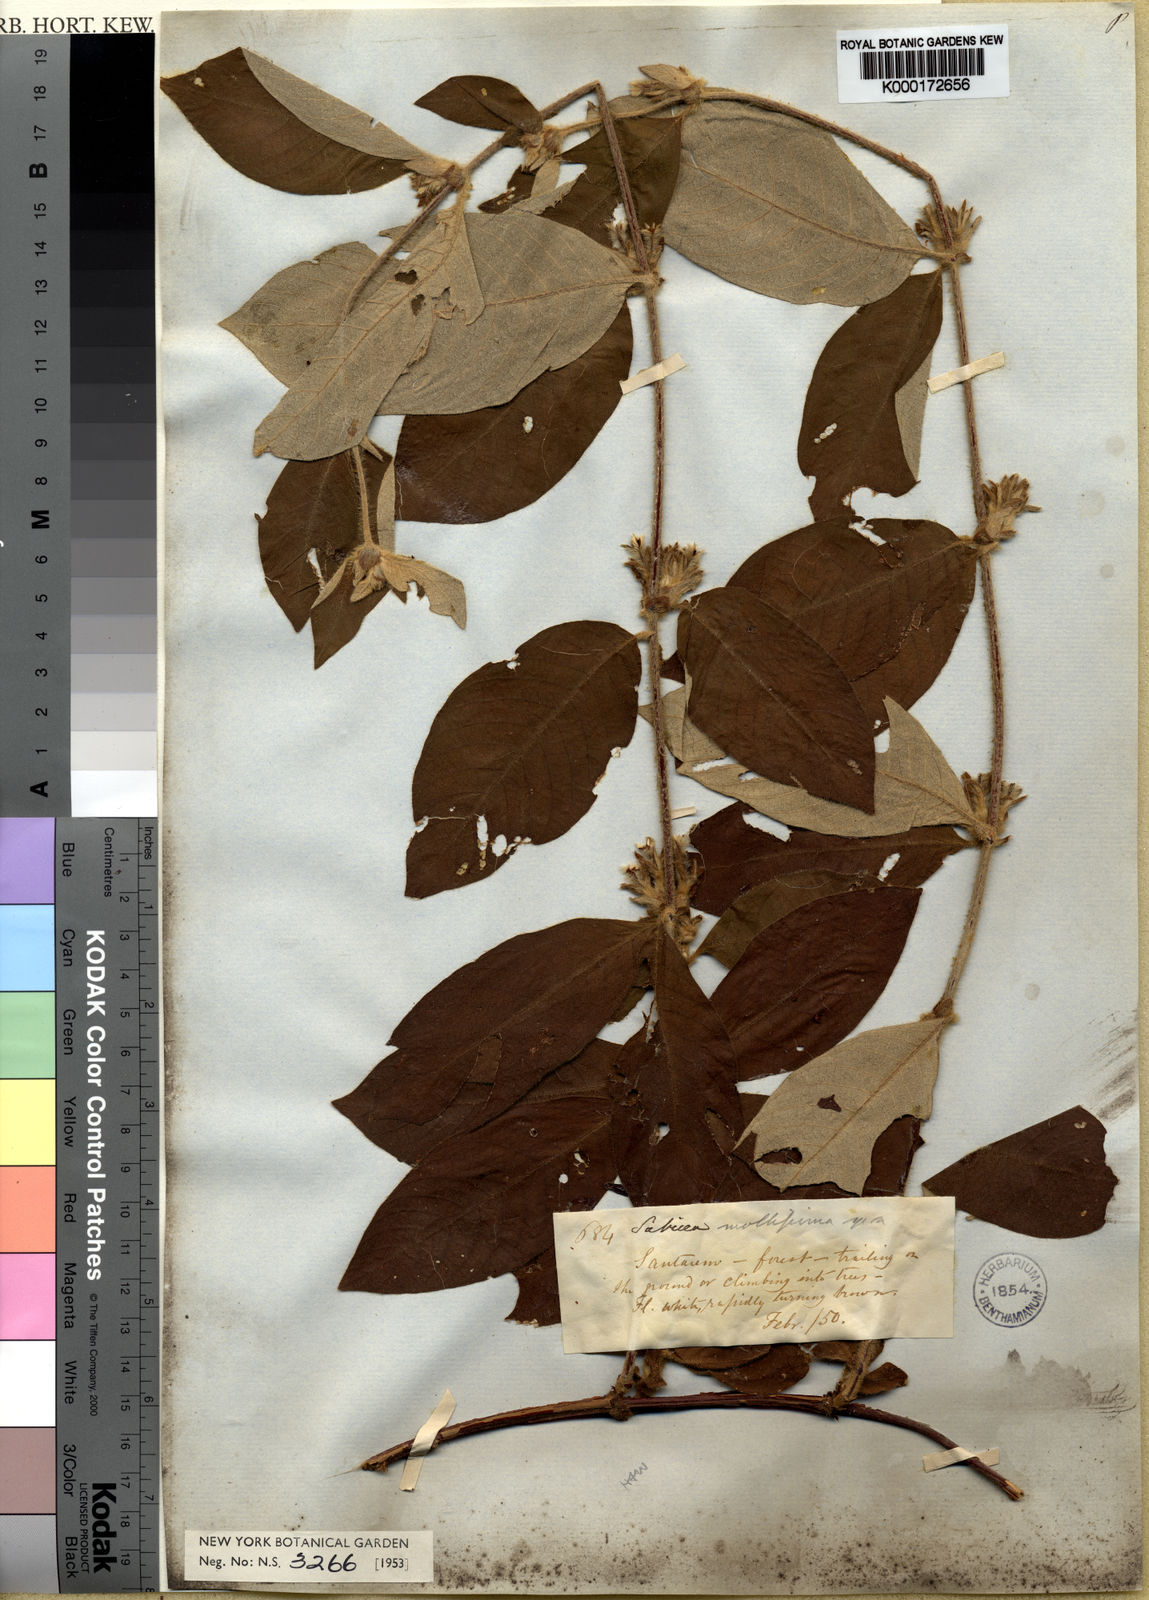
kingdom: Plantae
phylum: Tracheophyta
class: Magnoliopsida
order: Gentianales
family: Rubiaceae
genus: Sabicea
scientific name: Sabicea mollissima
